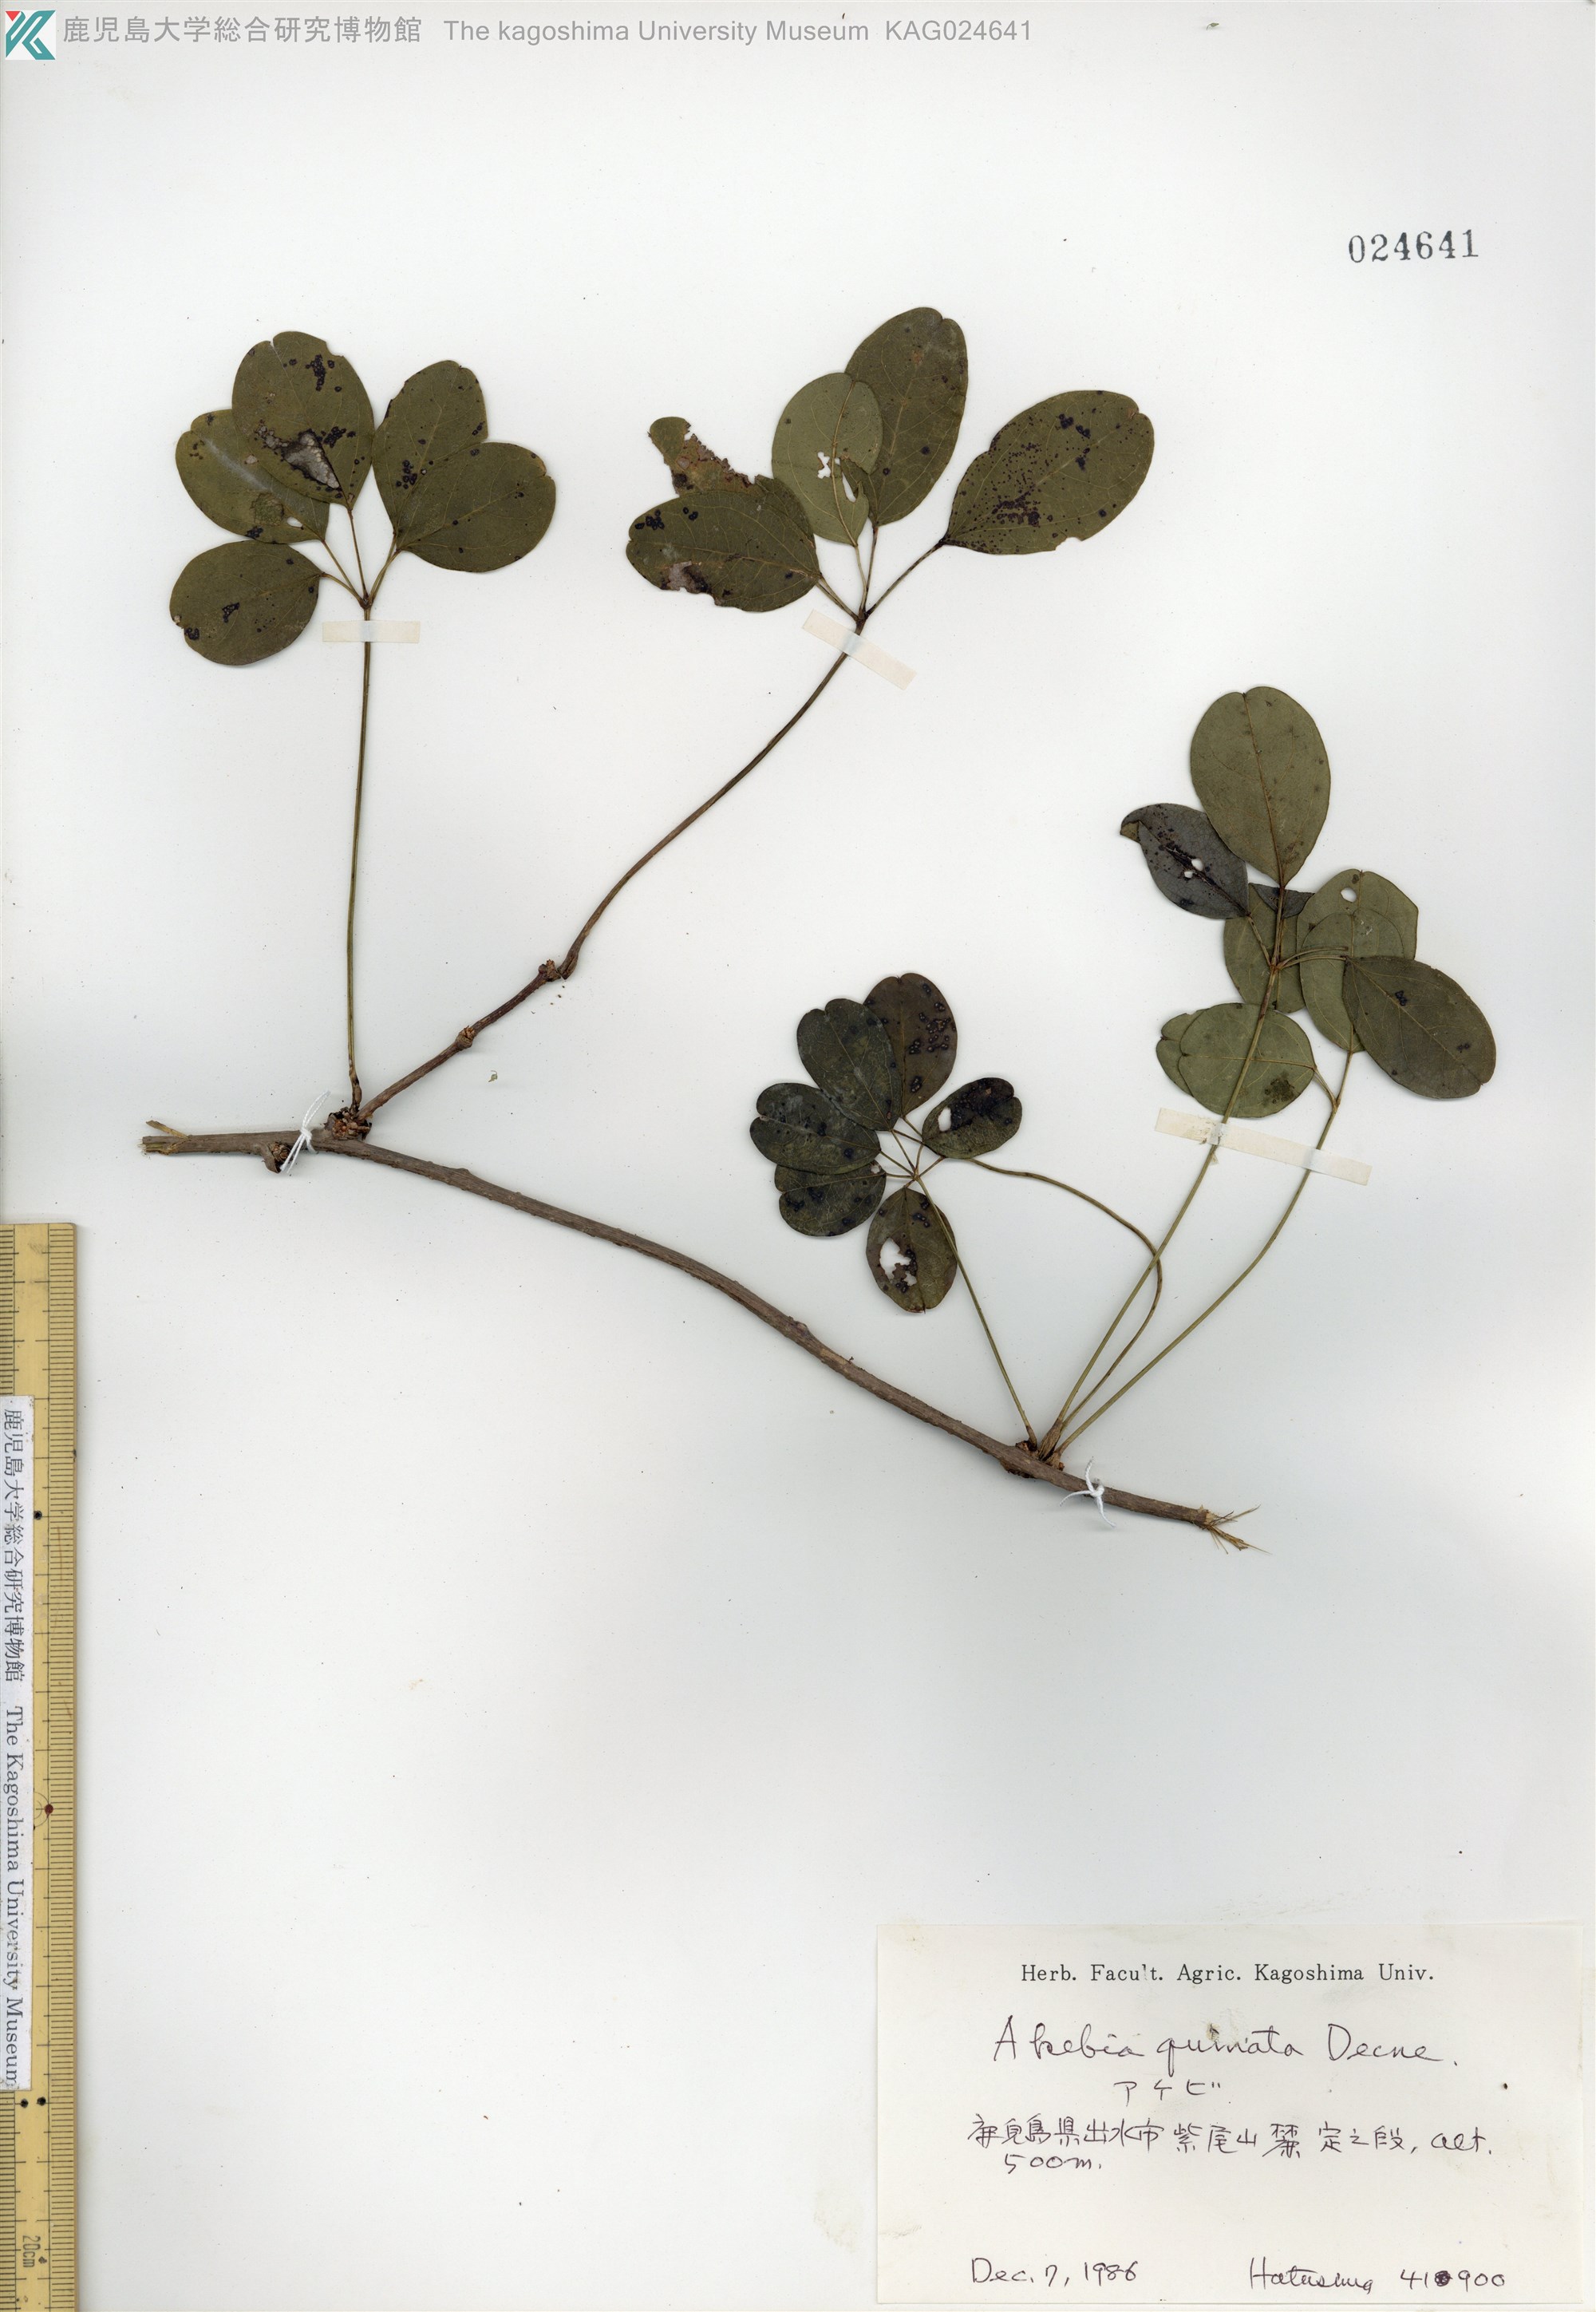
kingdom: Plantae
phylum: Tracheophyta
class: Magnoliopsida
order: Ranunculales
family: Lardizabalaceae
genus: Akebia
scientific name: Akebia quinata
